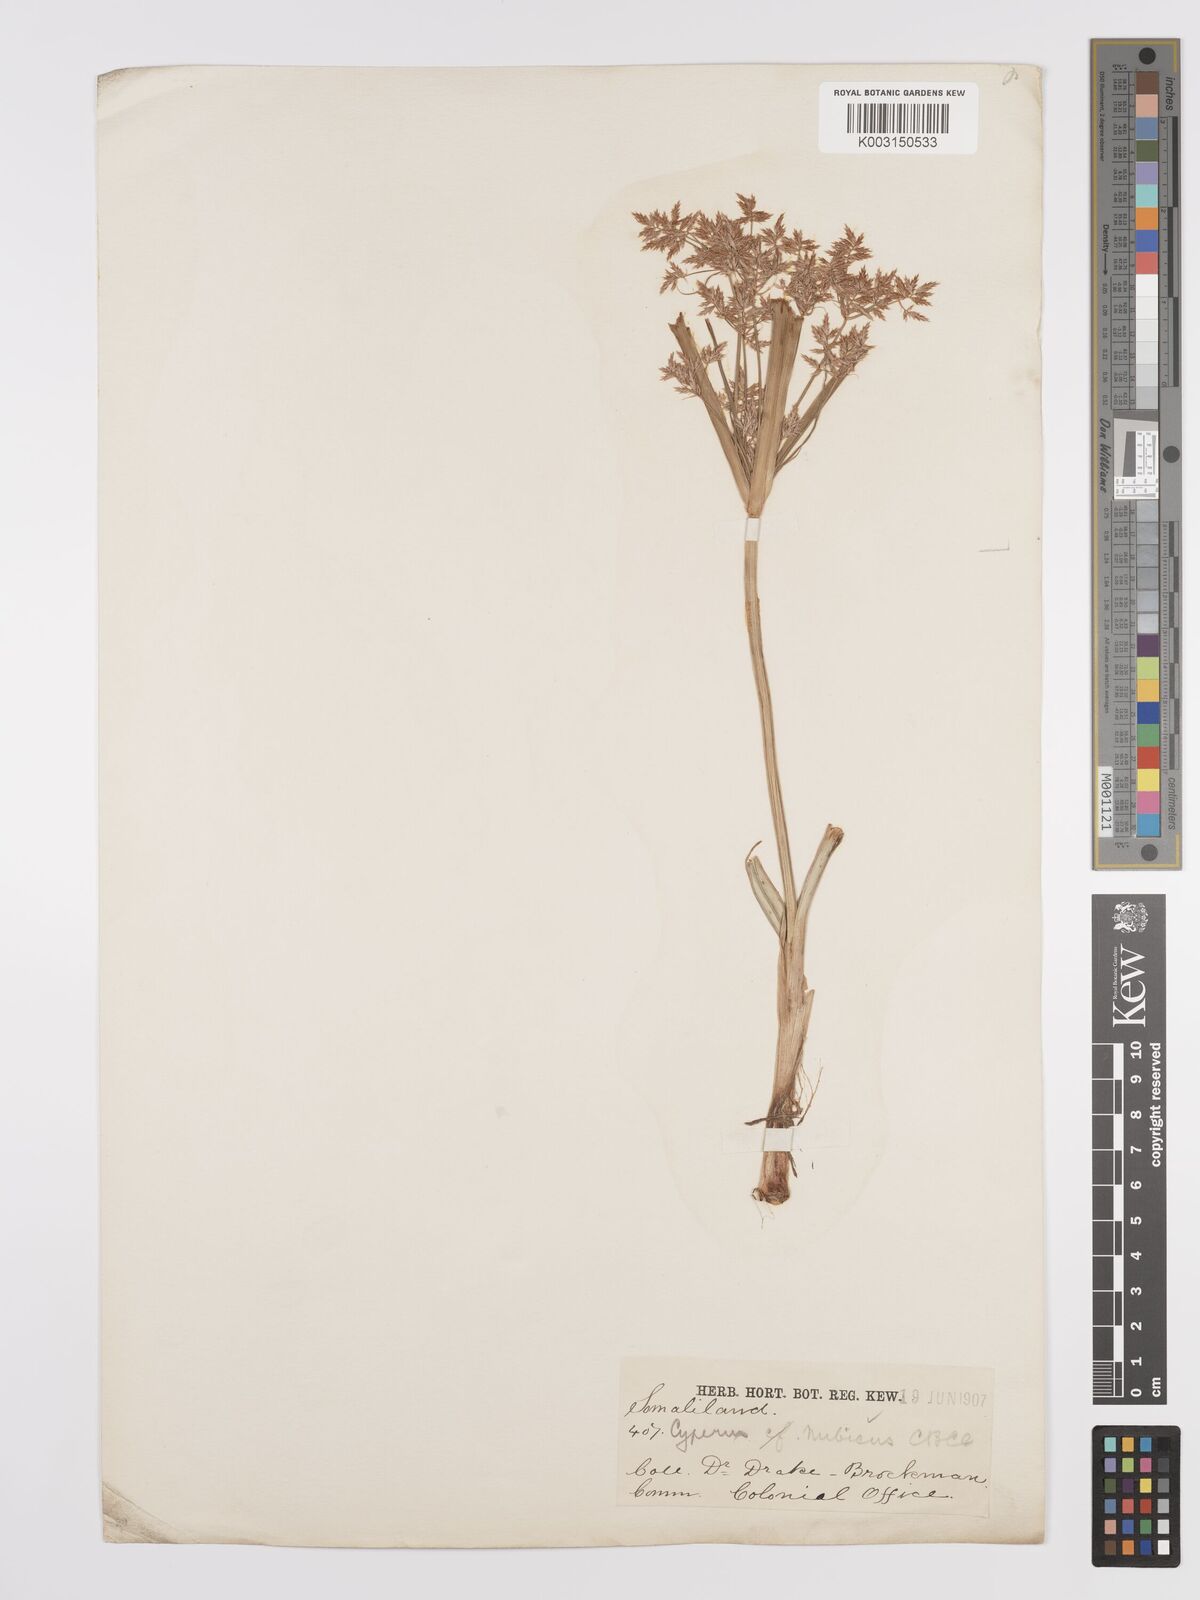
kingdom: Plantae
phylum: Tracheophyta
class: Liliopsida
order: Poales
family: Cyperaceae
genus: Cyperus
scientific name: Cyperus bifax
